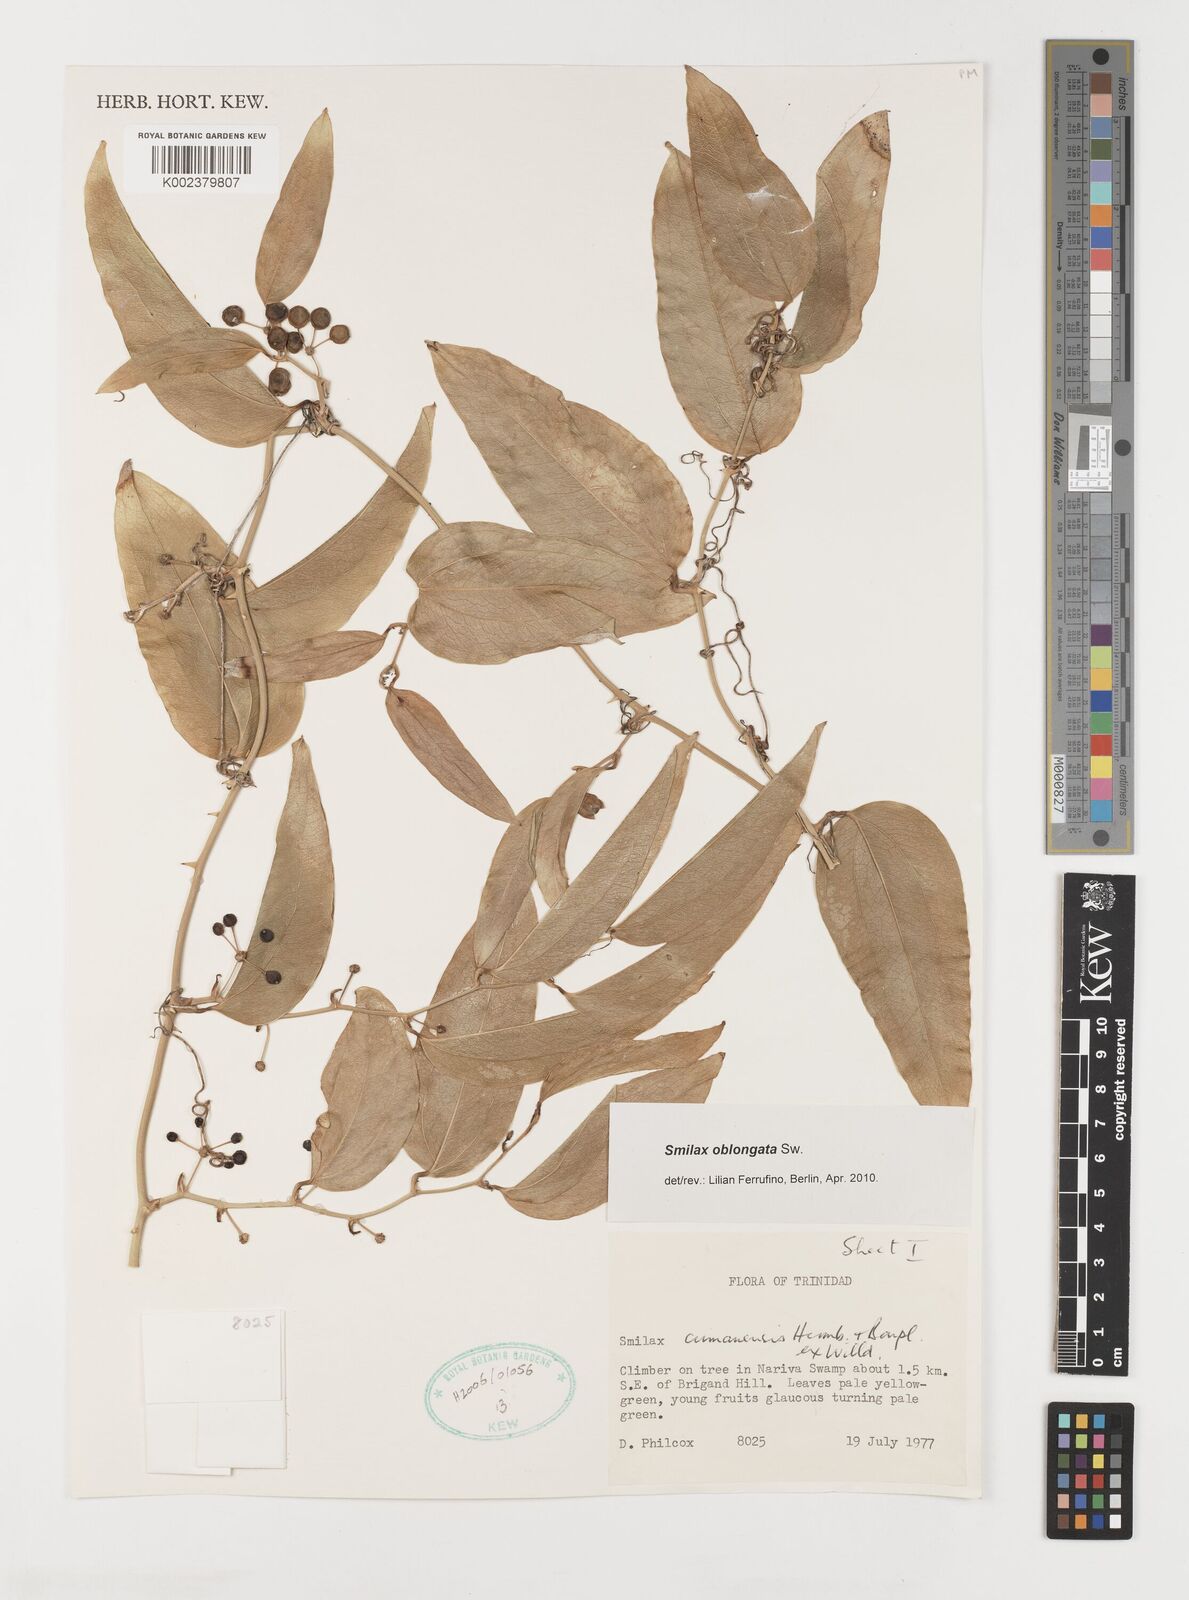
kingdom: Plantae
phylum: Tracheophyta
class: Liliopsida
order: Liliales
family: Smilacaceae
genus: Smilax
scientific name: Smilax oblongata
